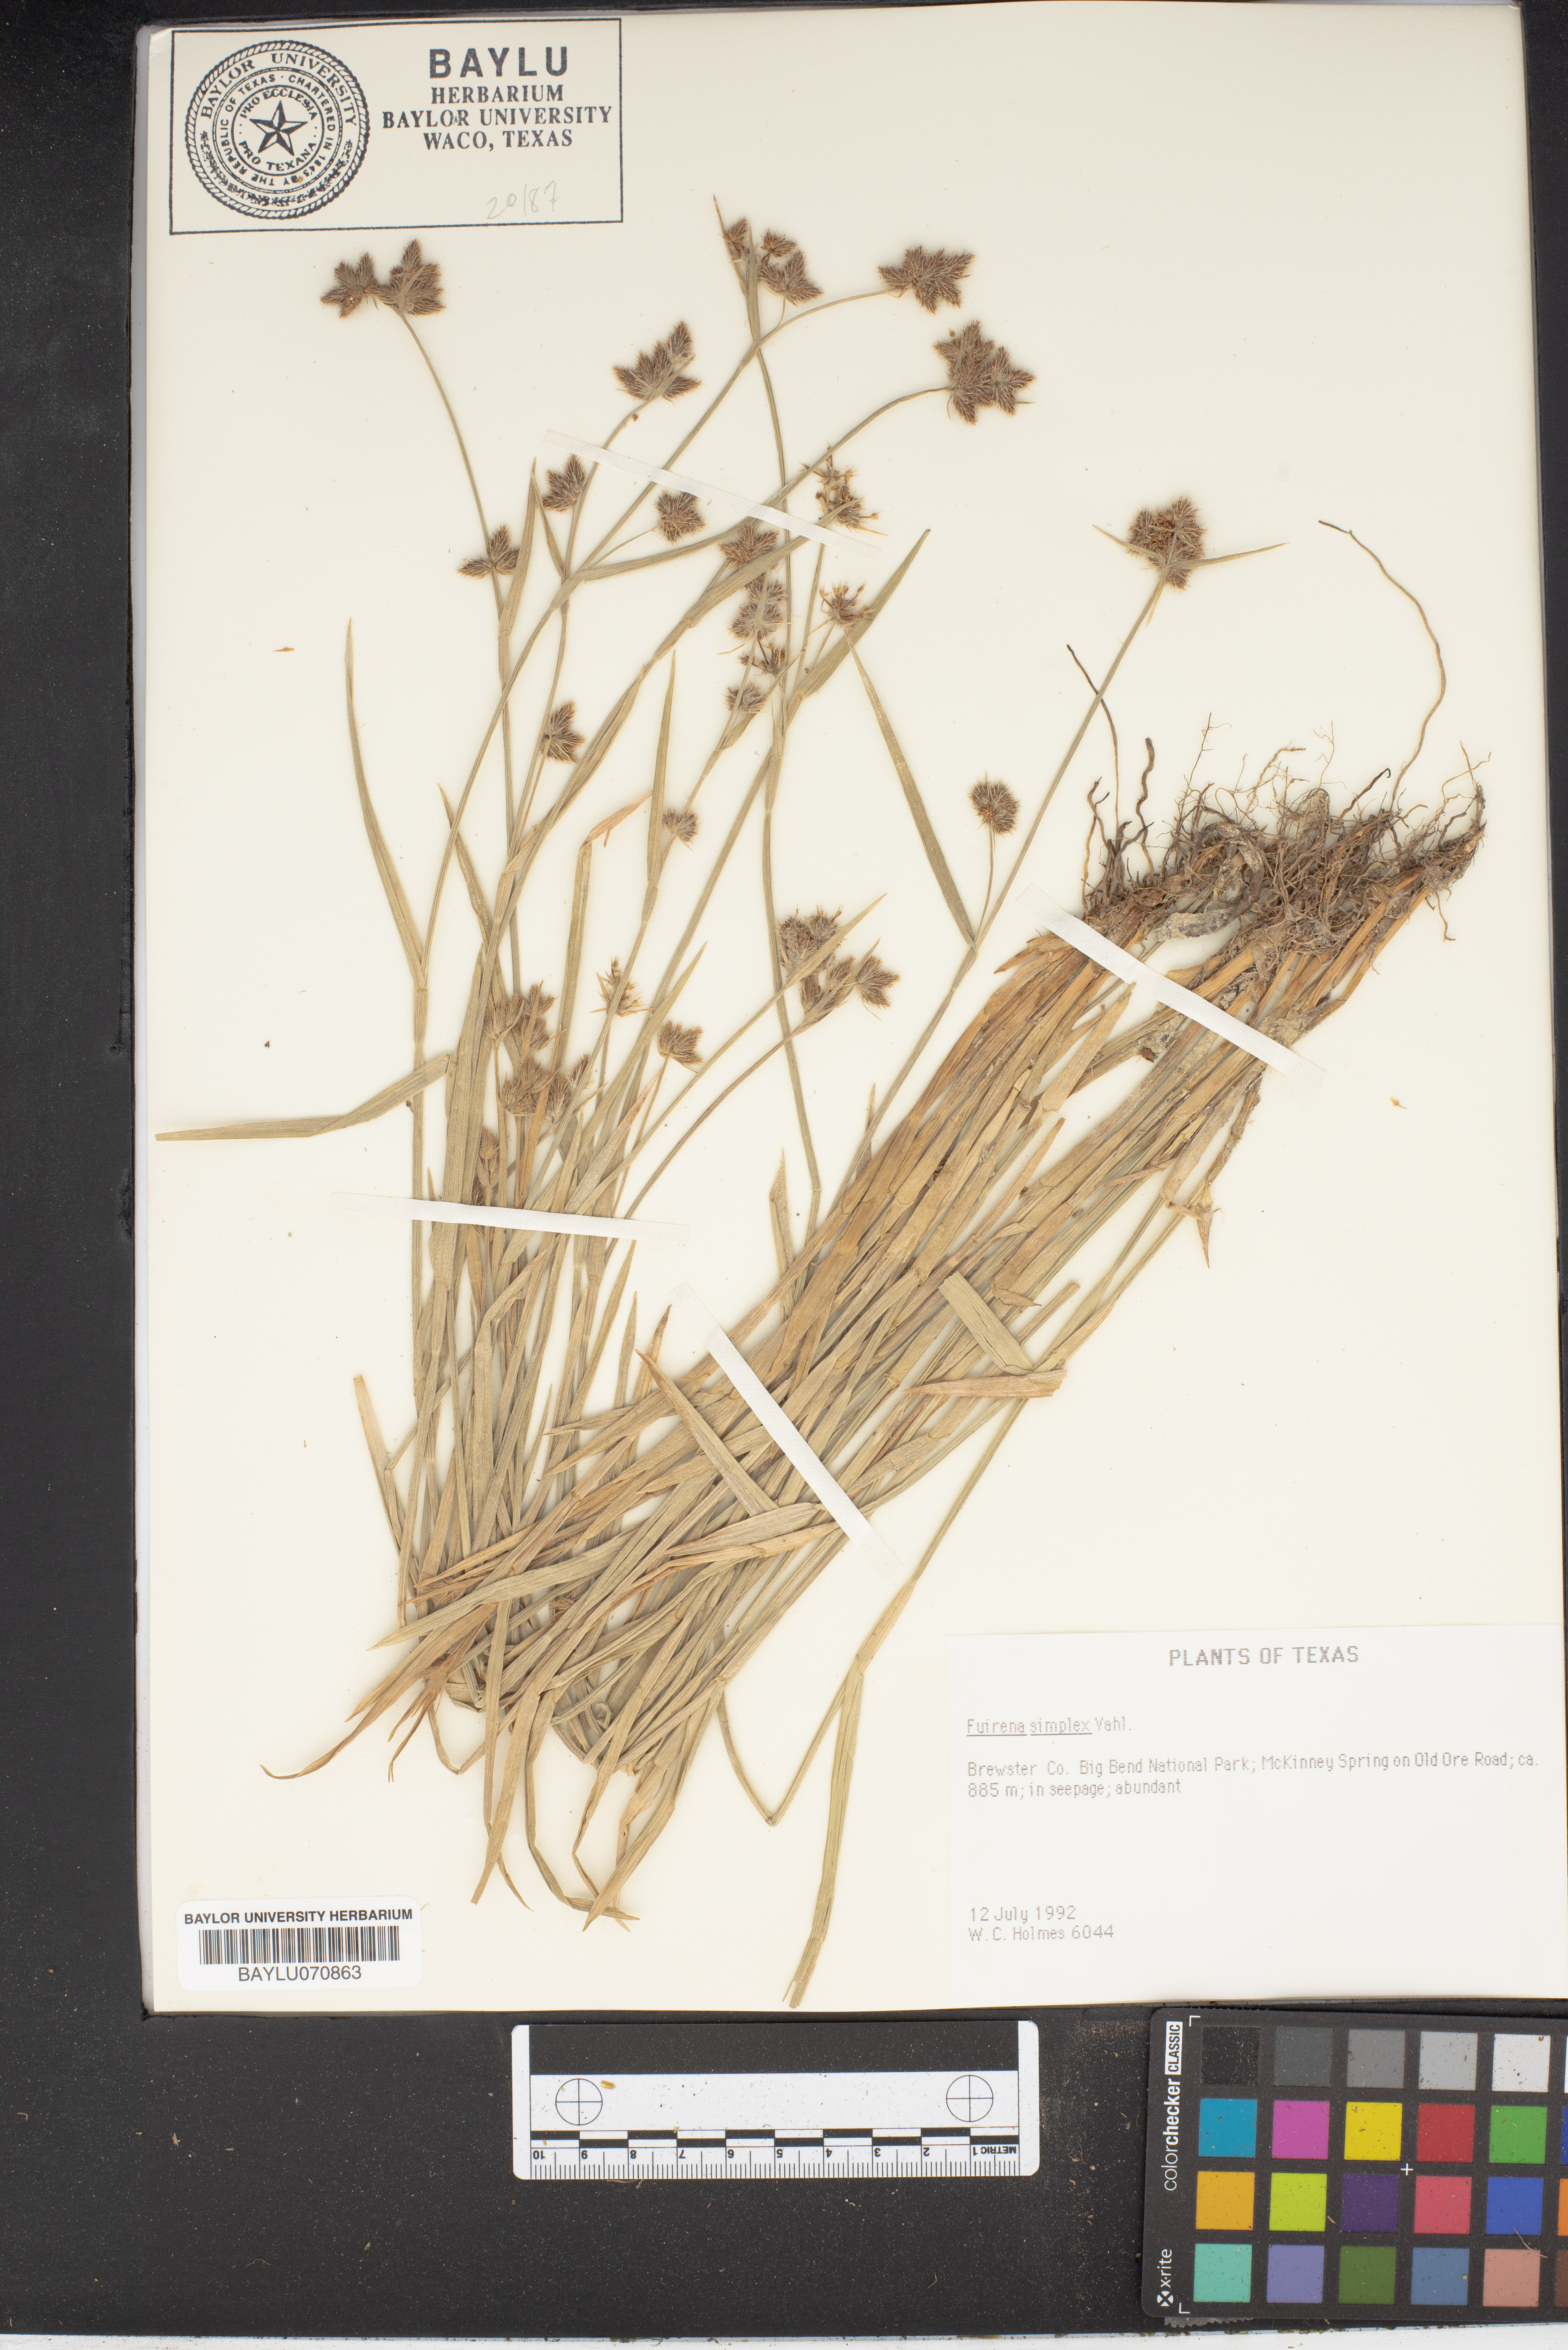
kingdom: Plantae
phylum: Tracheophyta
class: Liliopsida
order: Poales
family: Cyperaceae
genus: Fuirena
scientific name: Fuirena simplex
